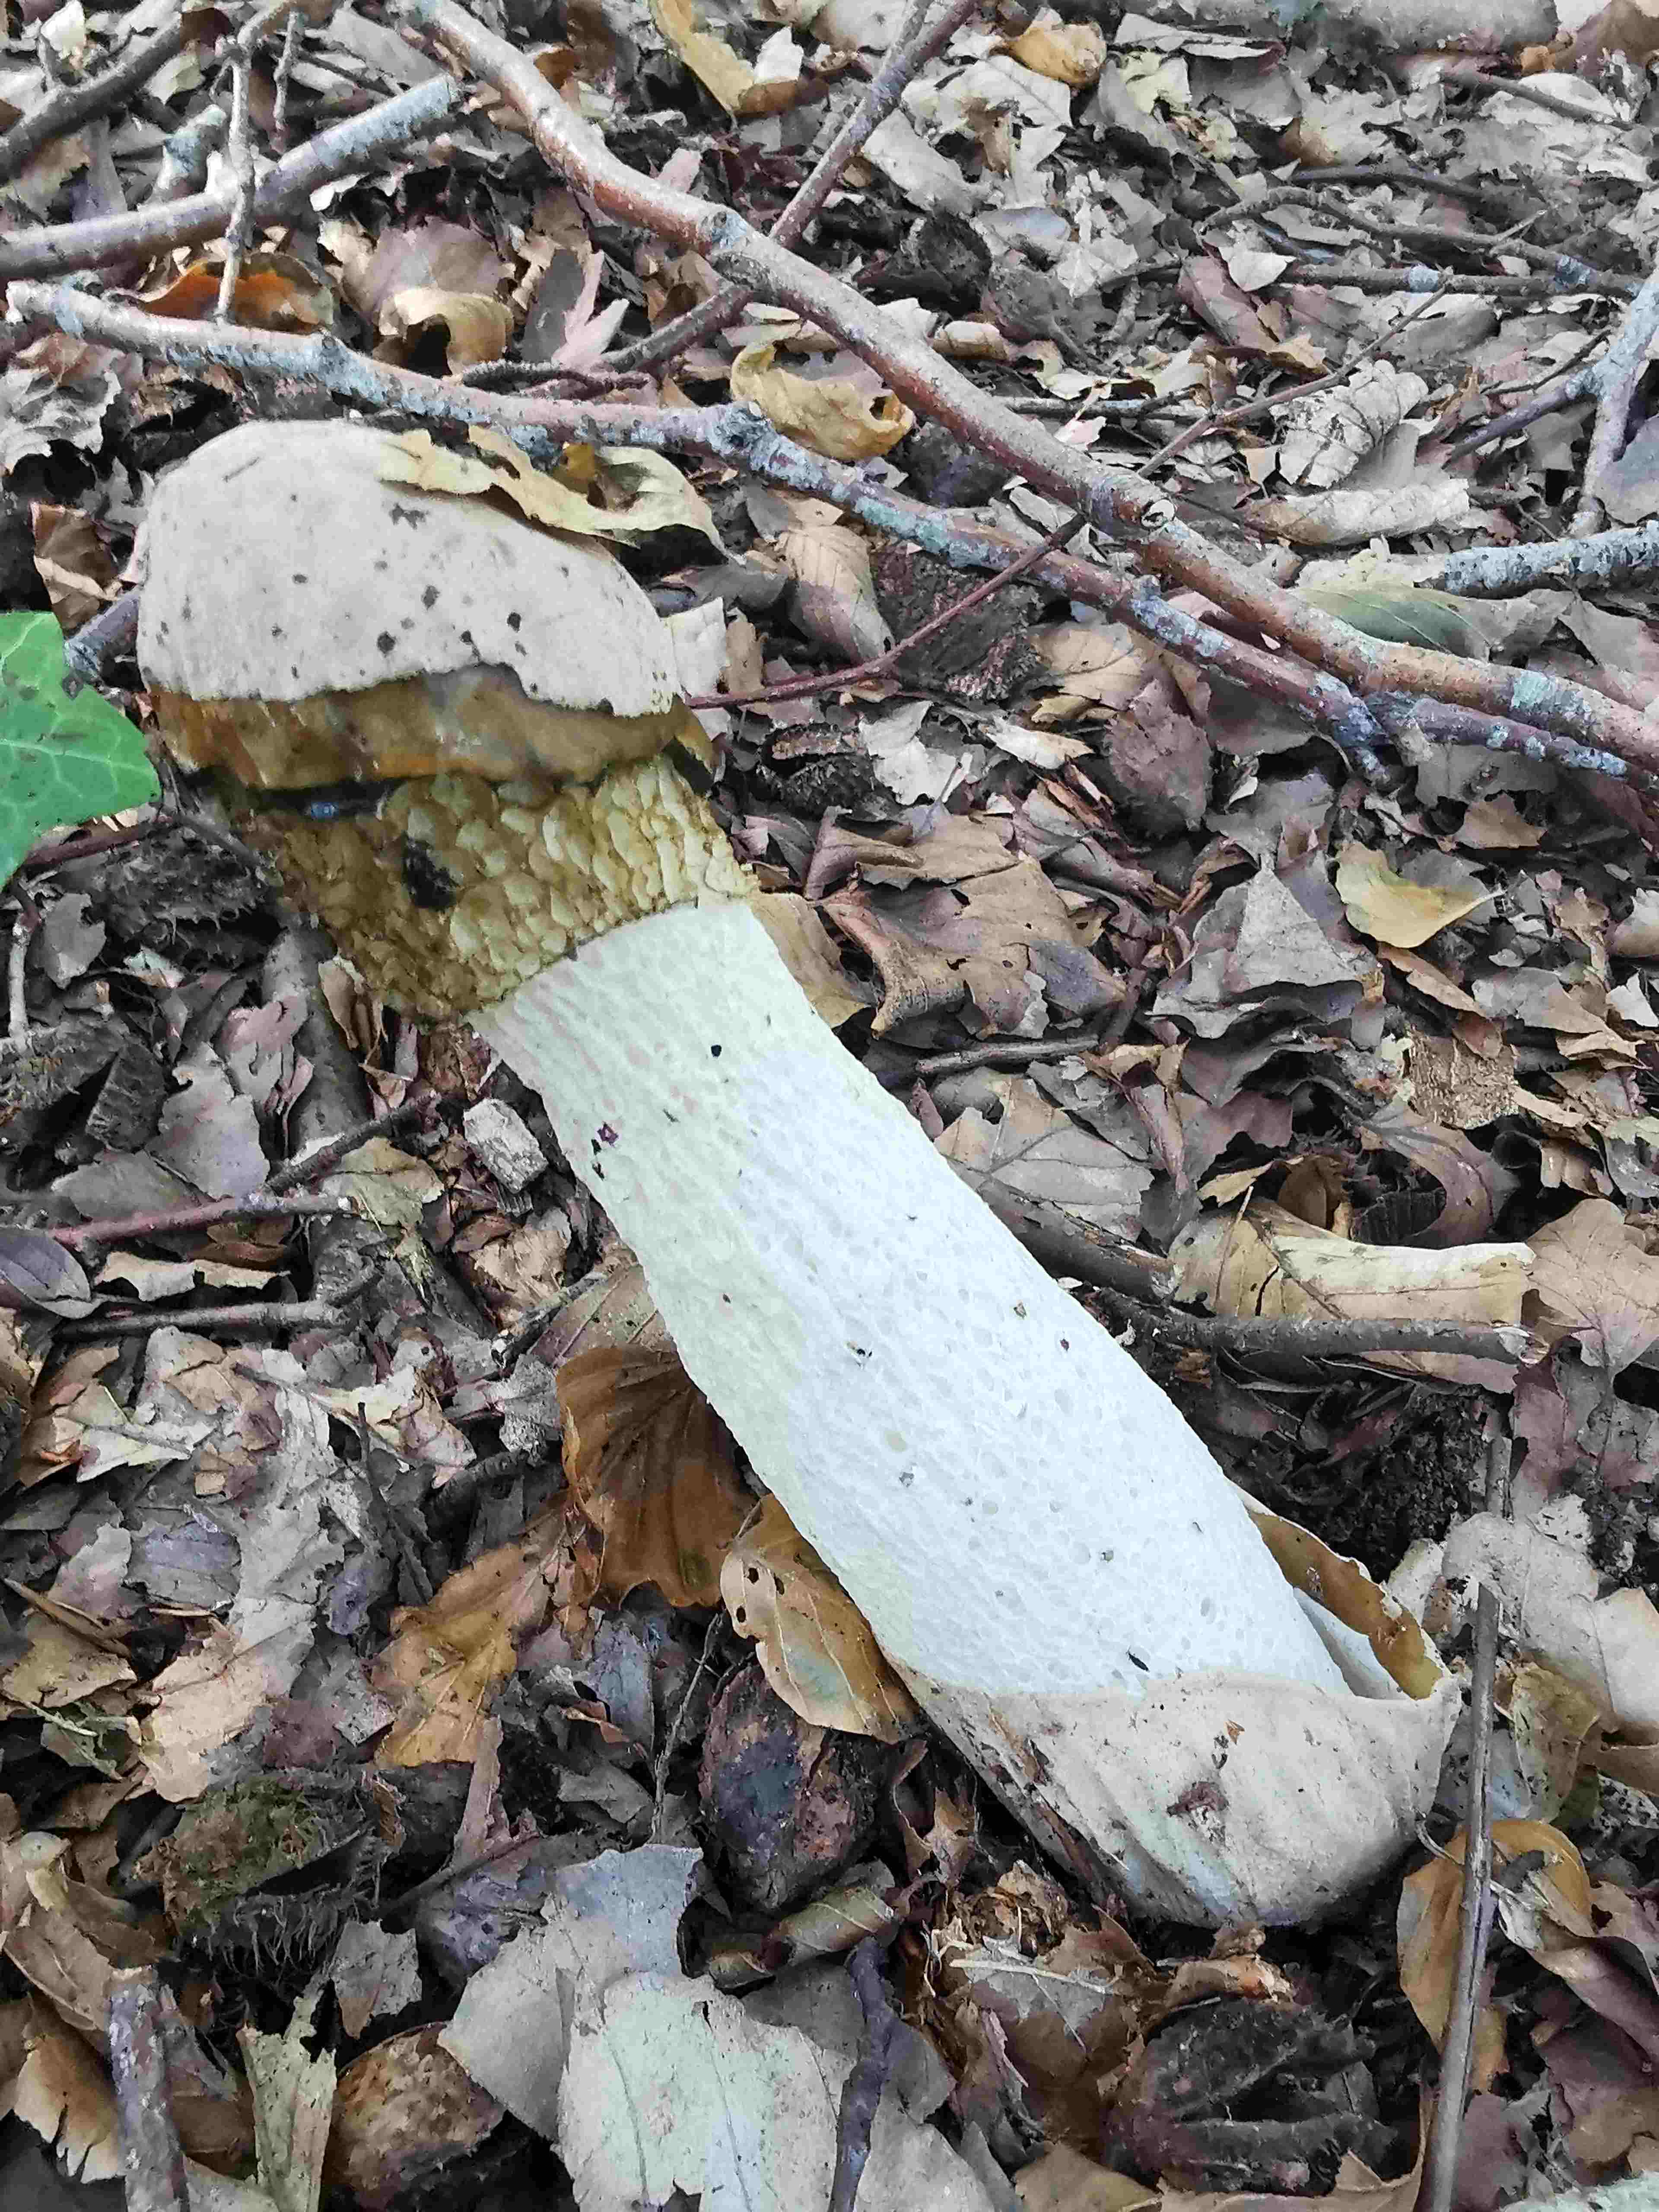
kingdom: Fungi
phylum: Basidiomycota
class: Agaricomycetes
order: Phallales
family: Phallaceae
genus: Phallus
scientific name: Phallus impudicus
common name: almindelig stinksvamp
